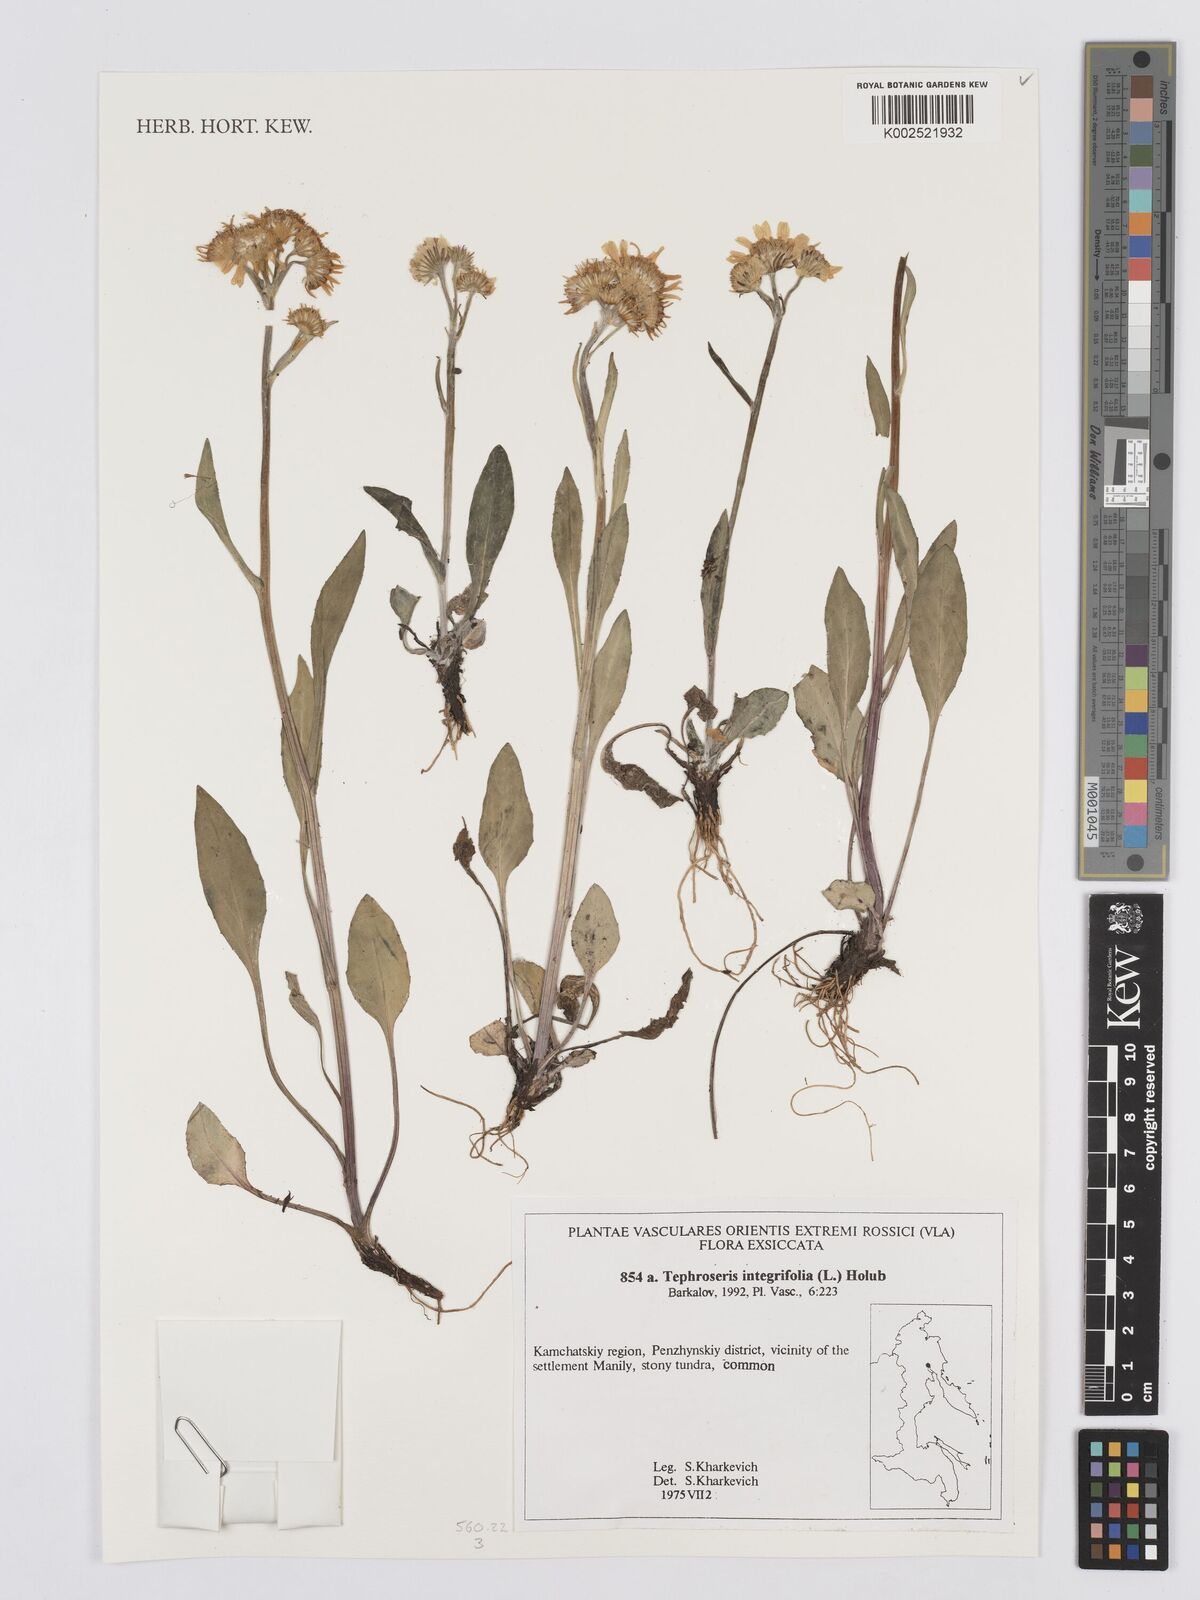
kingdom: Plantae
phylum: Tracheophyta
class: Magnoliopsida
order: Asterales
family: Asteraceae
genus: Tephroseris
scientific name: Tephroseris integrifolia
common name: Field fleawort
